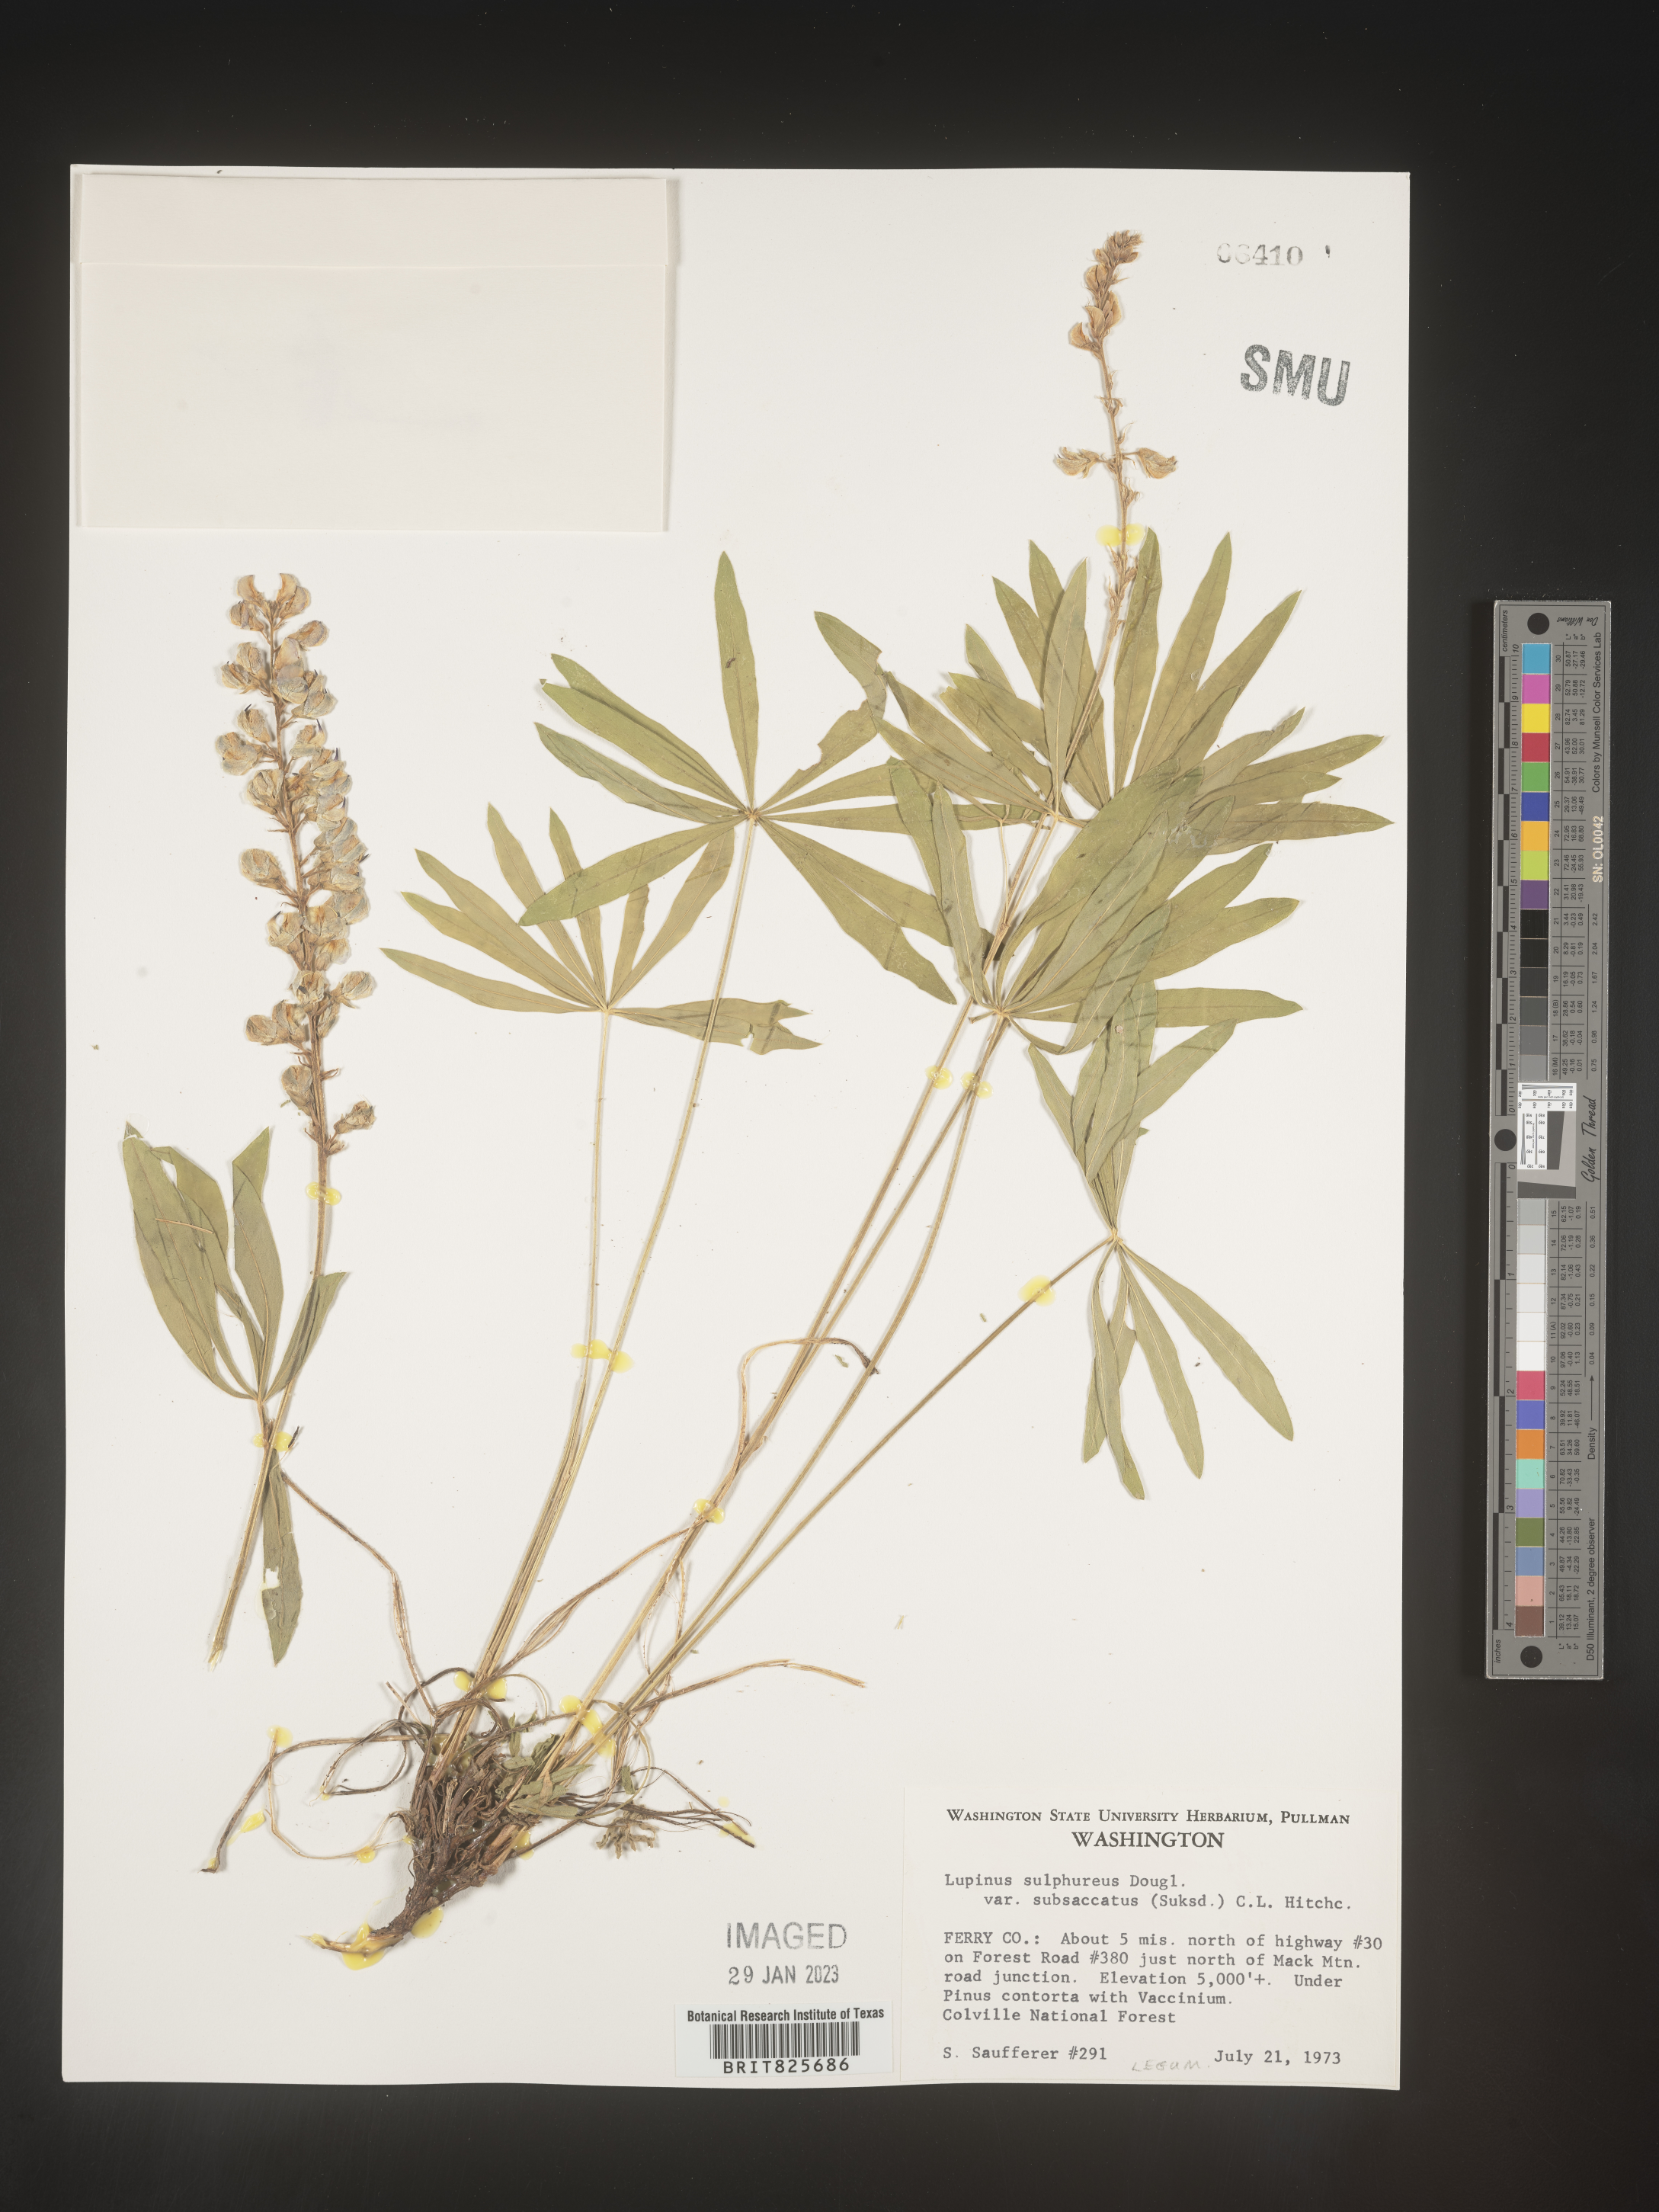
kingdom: Plantae
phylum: Tracheophyta
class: Magnoliopsida
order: Fabales
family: Fabaceae
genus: Lupinus
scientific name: Lupinus
